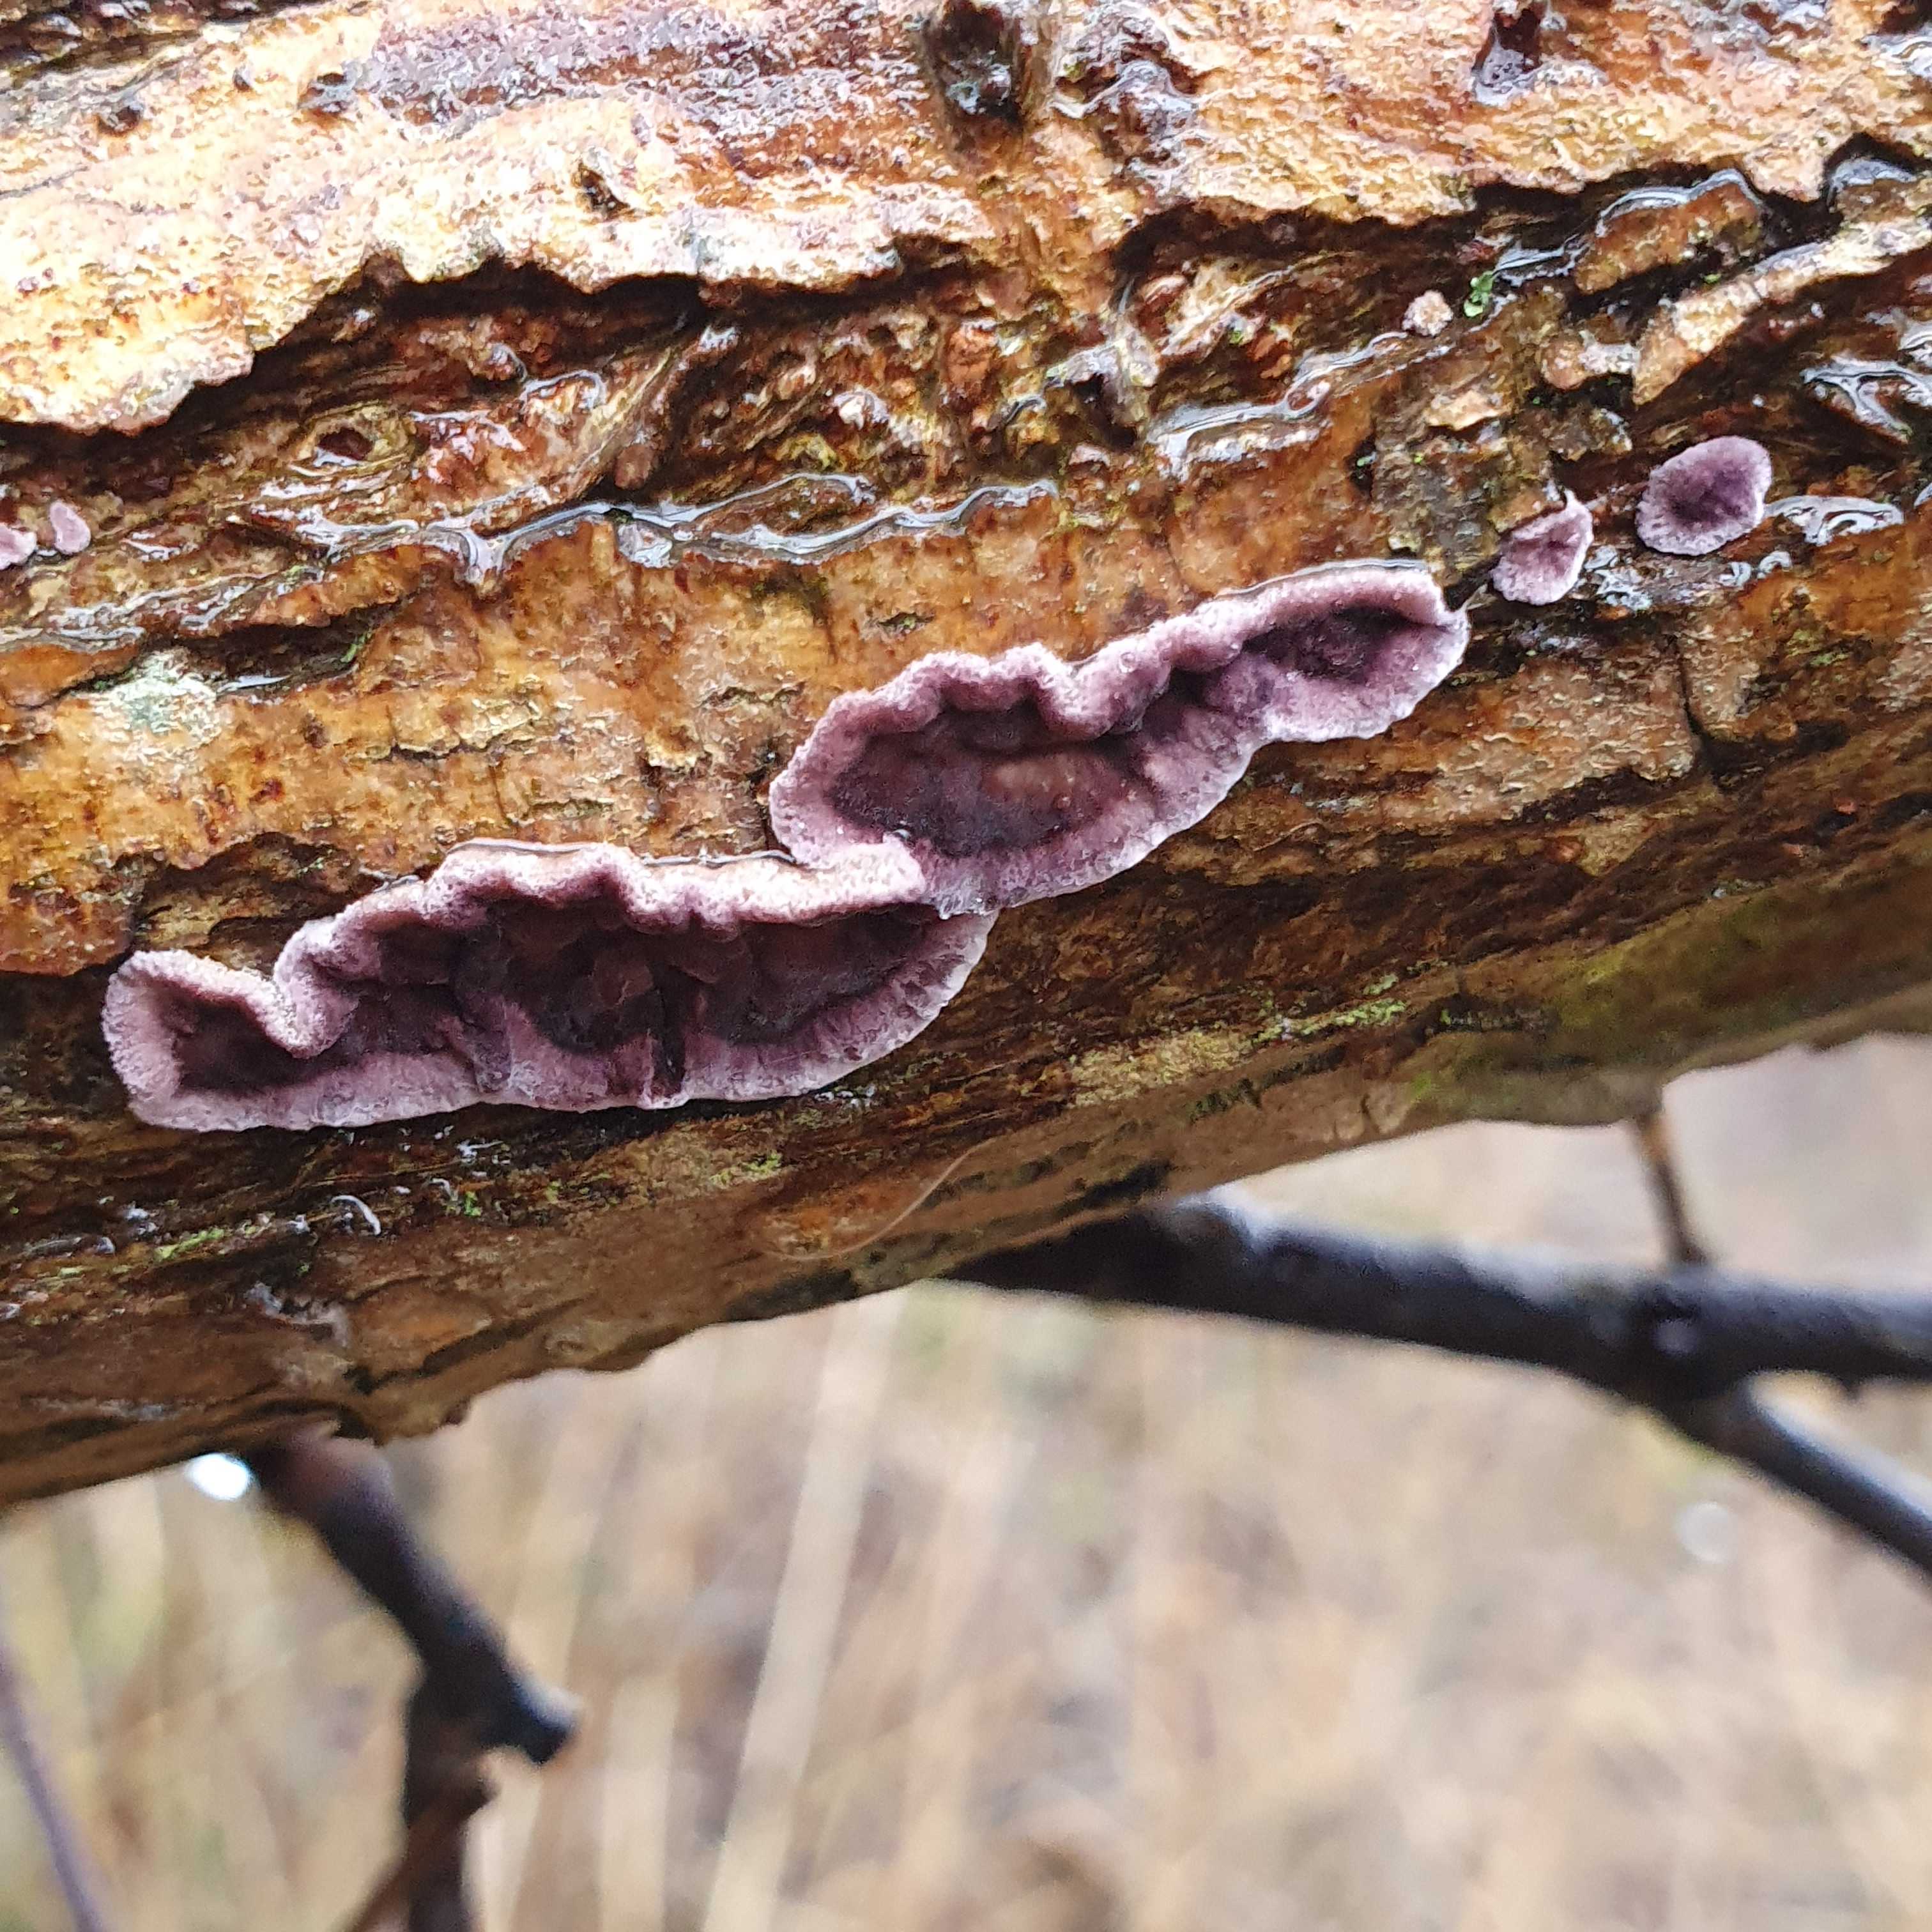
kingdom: Fungi
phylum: Basidiomycota
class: Agaricomycetes
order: Agaricales
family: Cyphellaceae
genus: Chondrostereum
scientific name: Chondrostereum purpureum
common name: purpurlædersvamp
